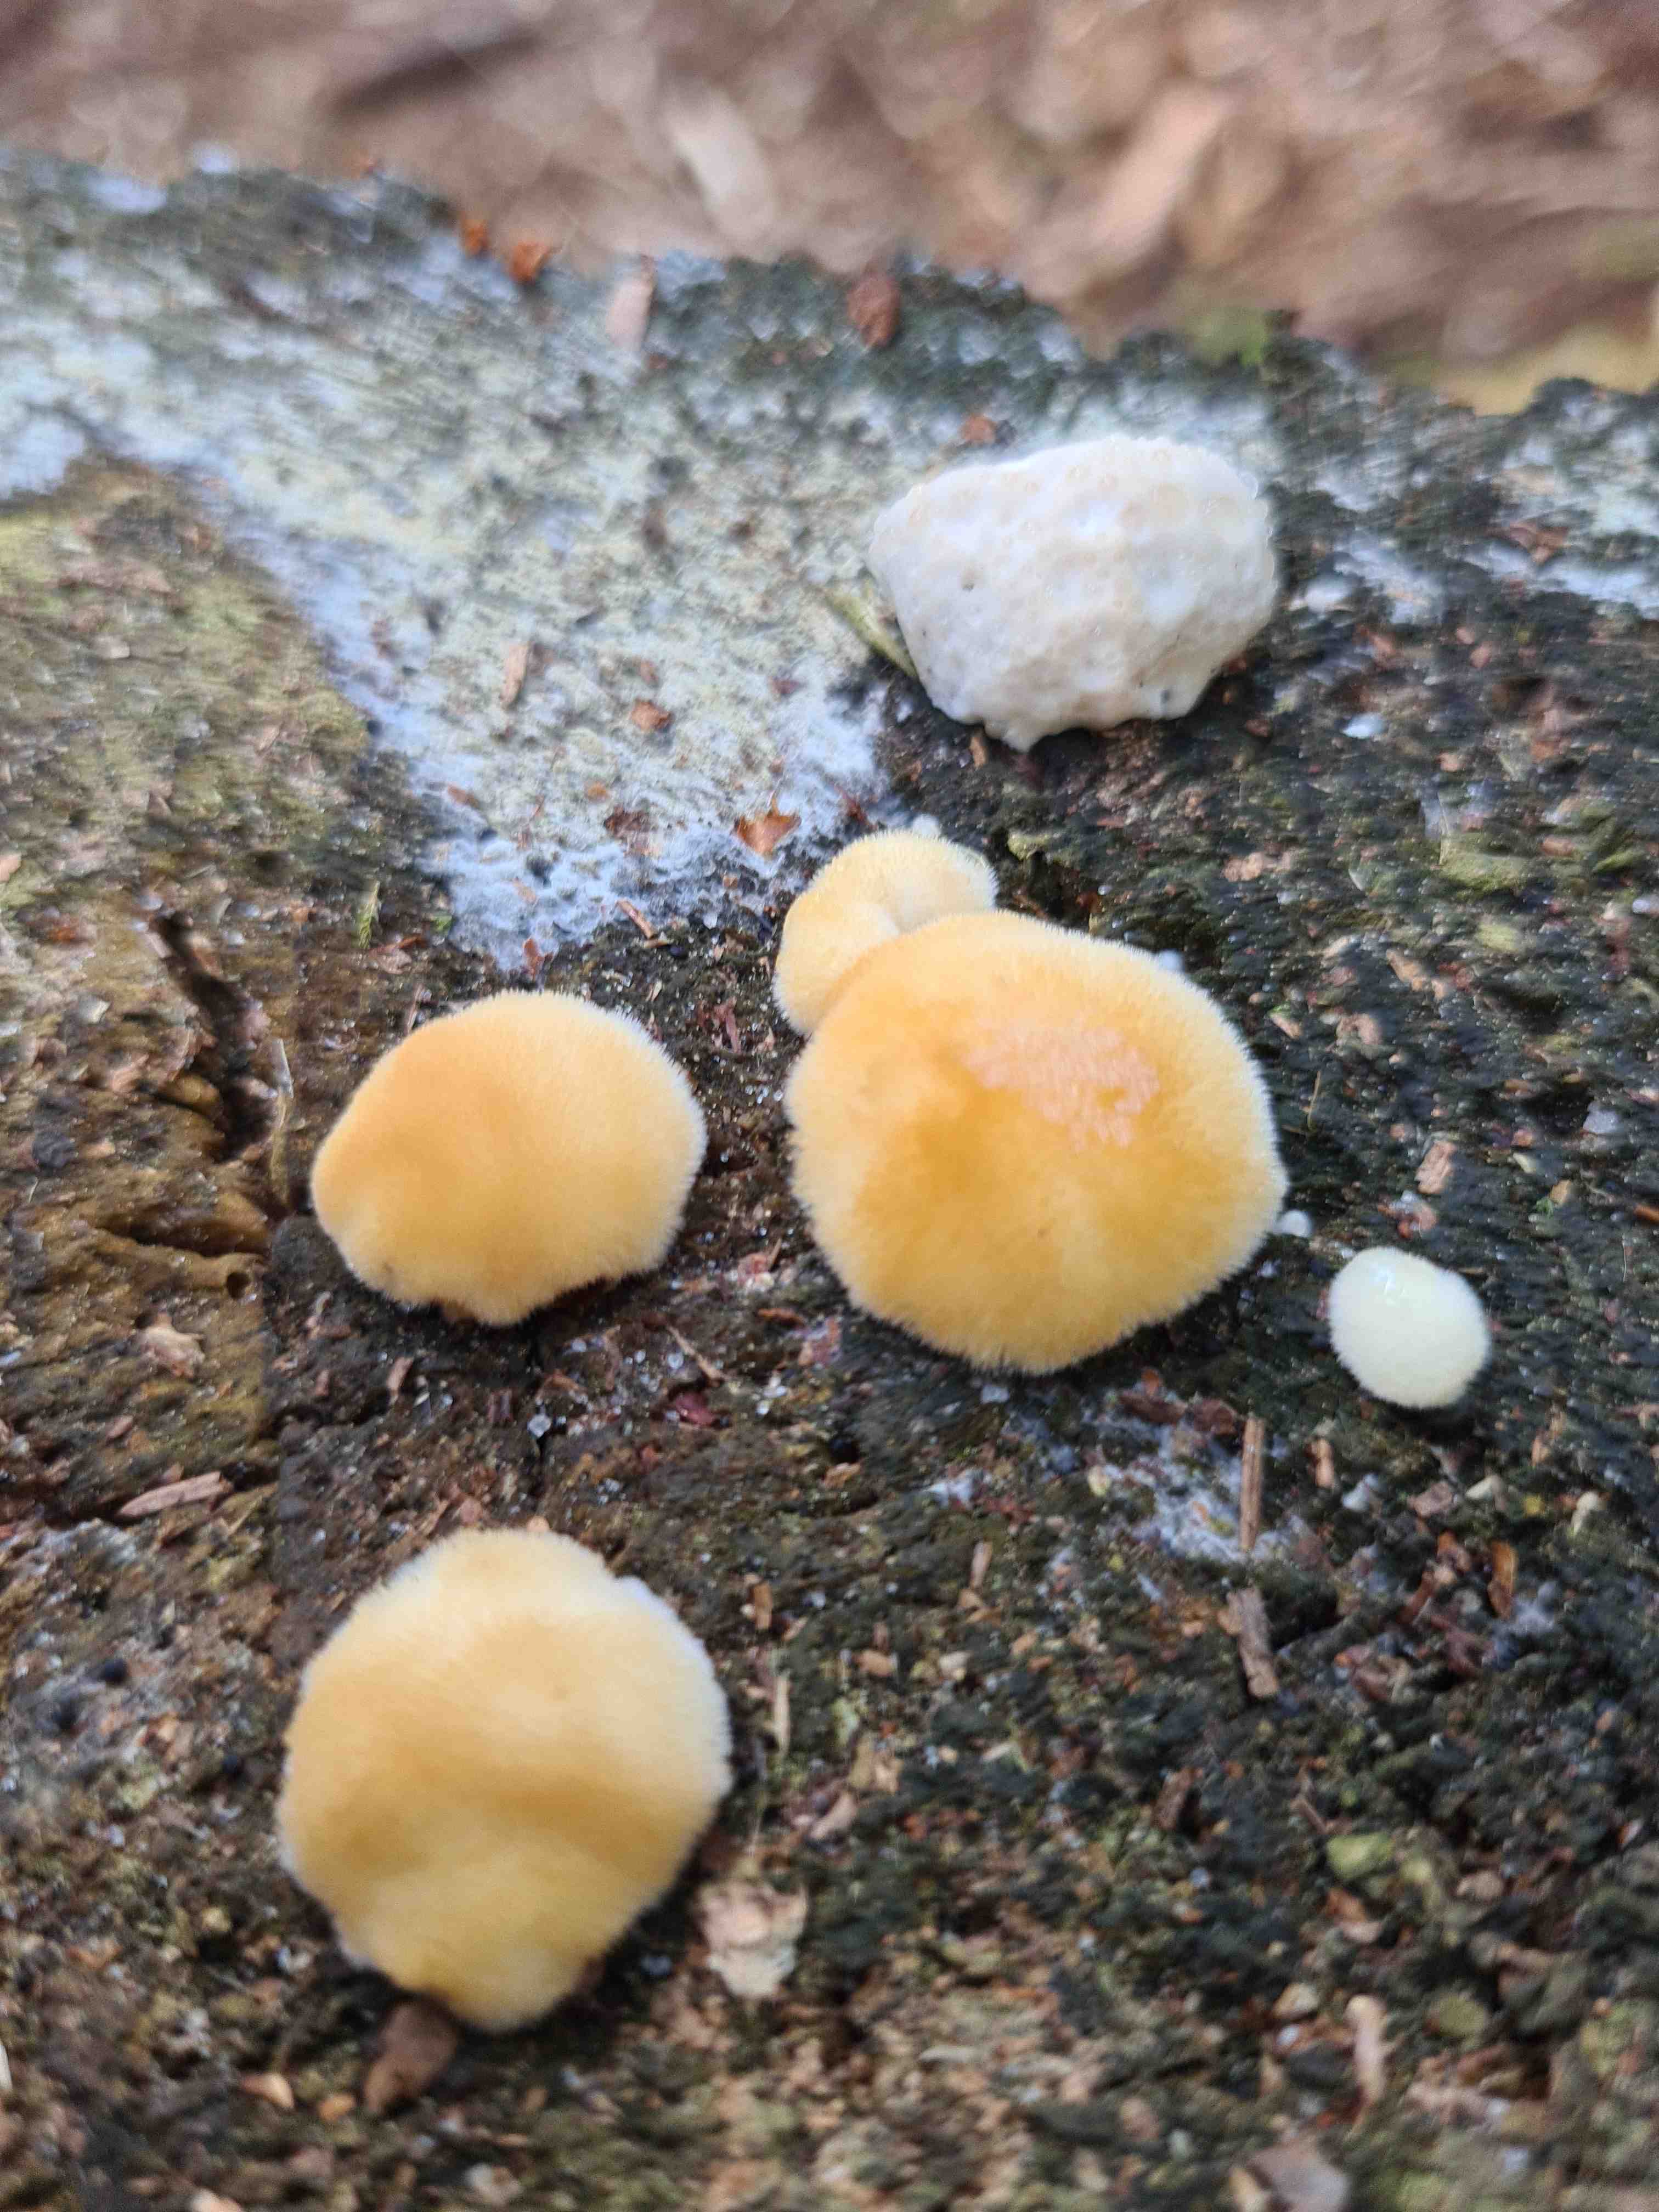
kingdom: Fungi
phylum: Basidiomycota
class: Agaricomycetes
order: Polyporales
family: Dacryobolaceae
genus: Postia
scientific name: Postia ptychogaster
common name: støvende kødporesvamp
